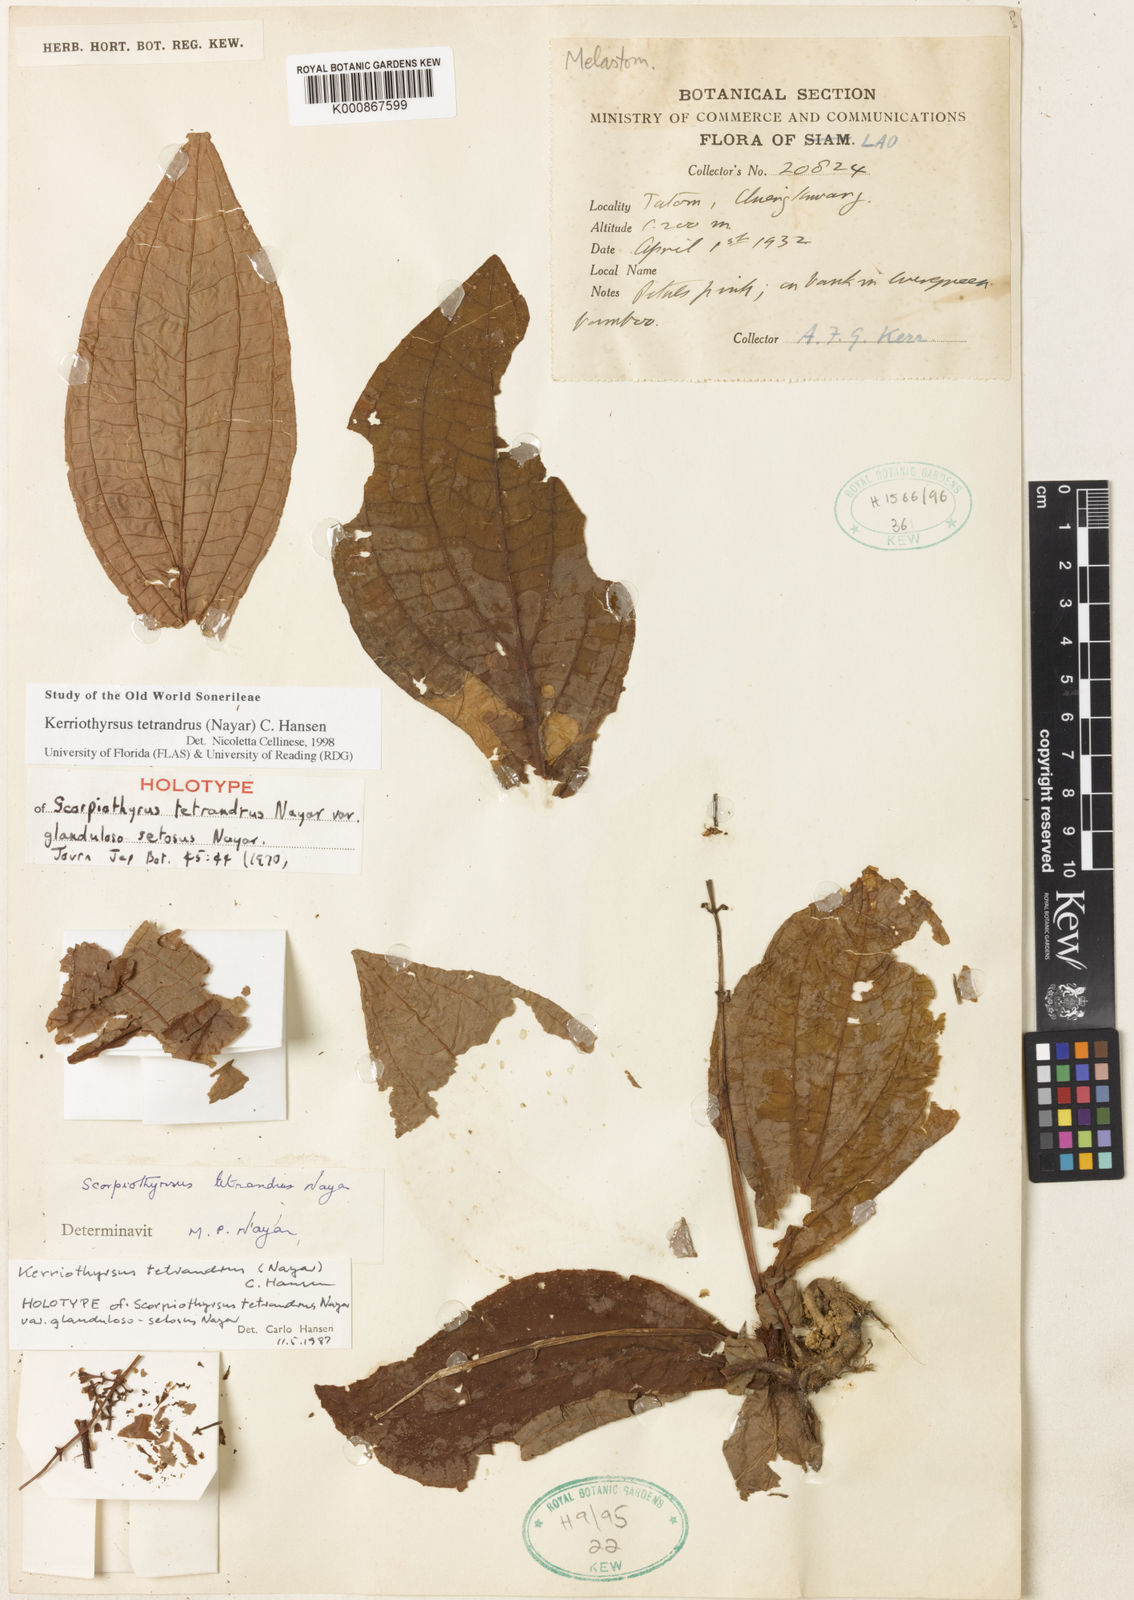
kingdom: Plantae
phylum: Tracheophyta
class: Magnoliopsida
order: Myrtales
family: Melastomataceae
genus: Kerriothyrsus
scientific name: Kerriothyrsus tetrandrus
